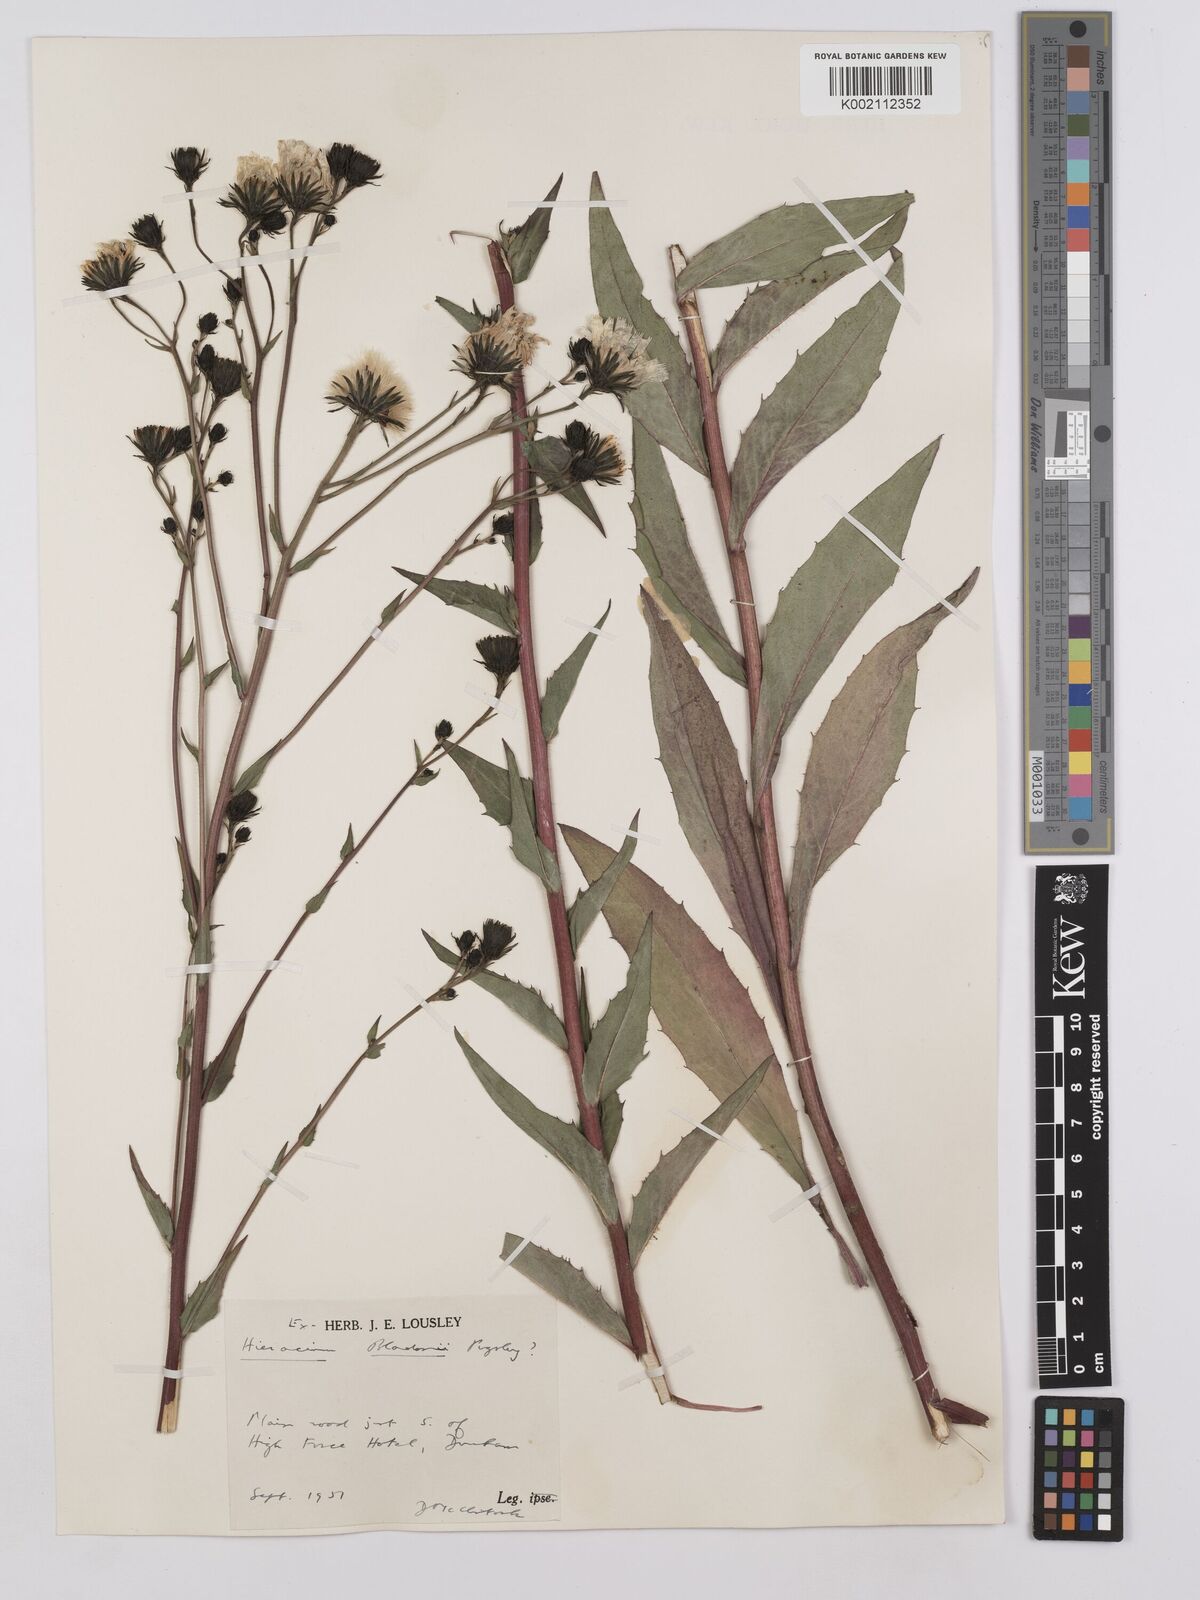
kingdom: Plantae
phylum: Tracheophyta
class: Magnoliopsida
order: Asterales
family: Asteraceae
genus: Hieracium
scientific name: Hieracium sabaudum
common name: New england hawkweed
